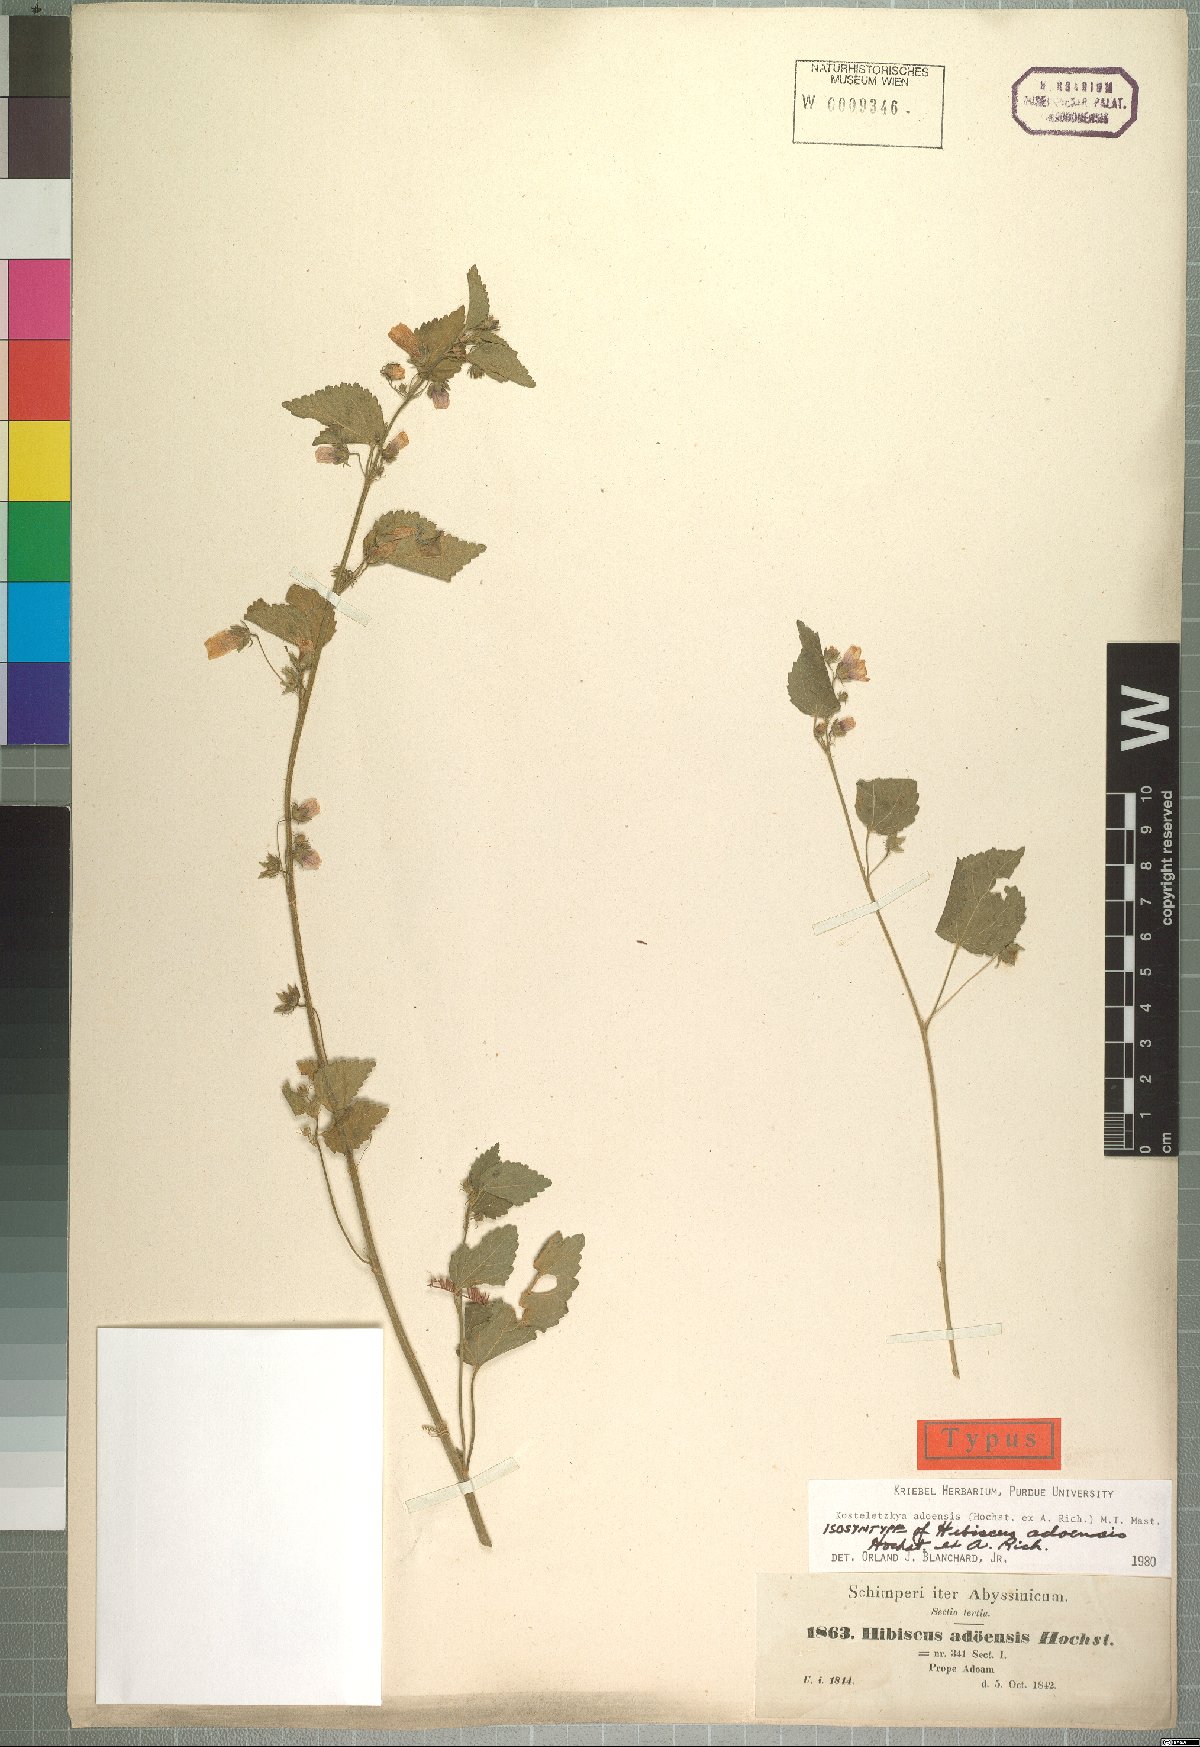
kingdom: Plantae
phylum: Tracheophyta
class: Magnoliopsida
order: Malvales
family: Malvaceae
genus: Kosteletzkya
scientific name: Kosteletzkya adoensis
